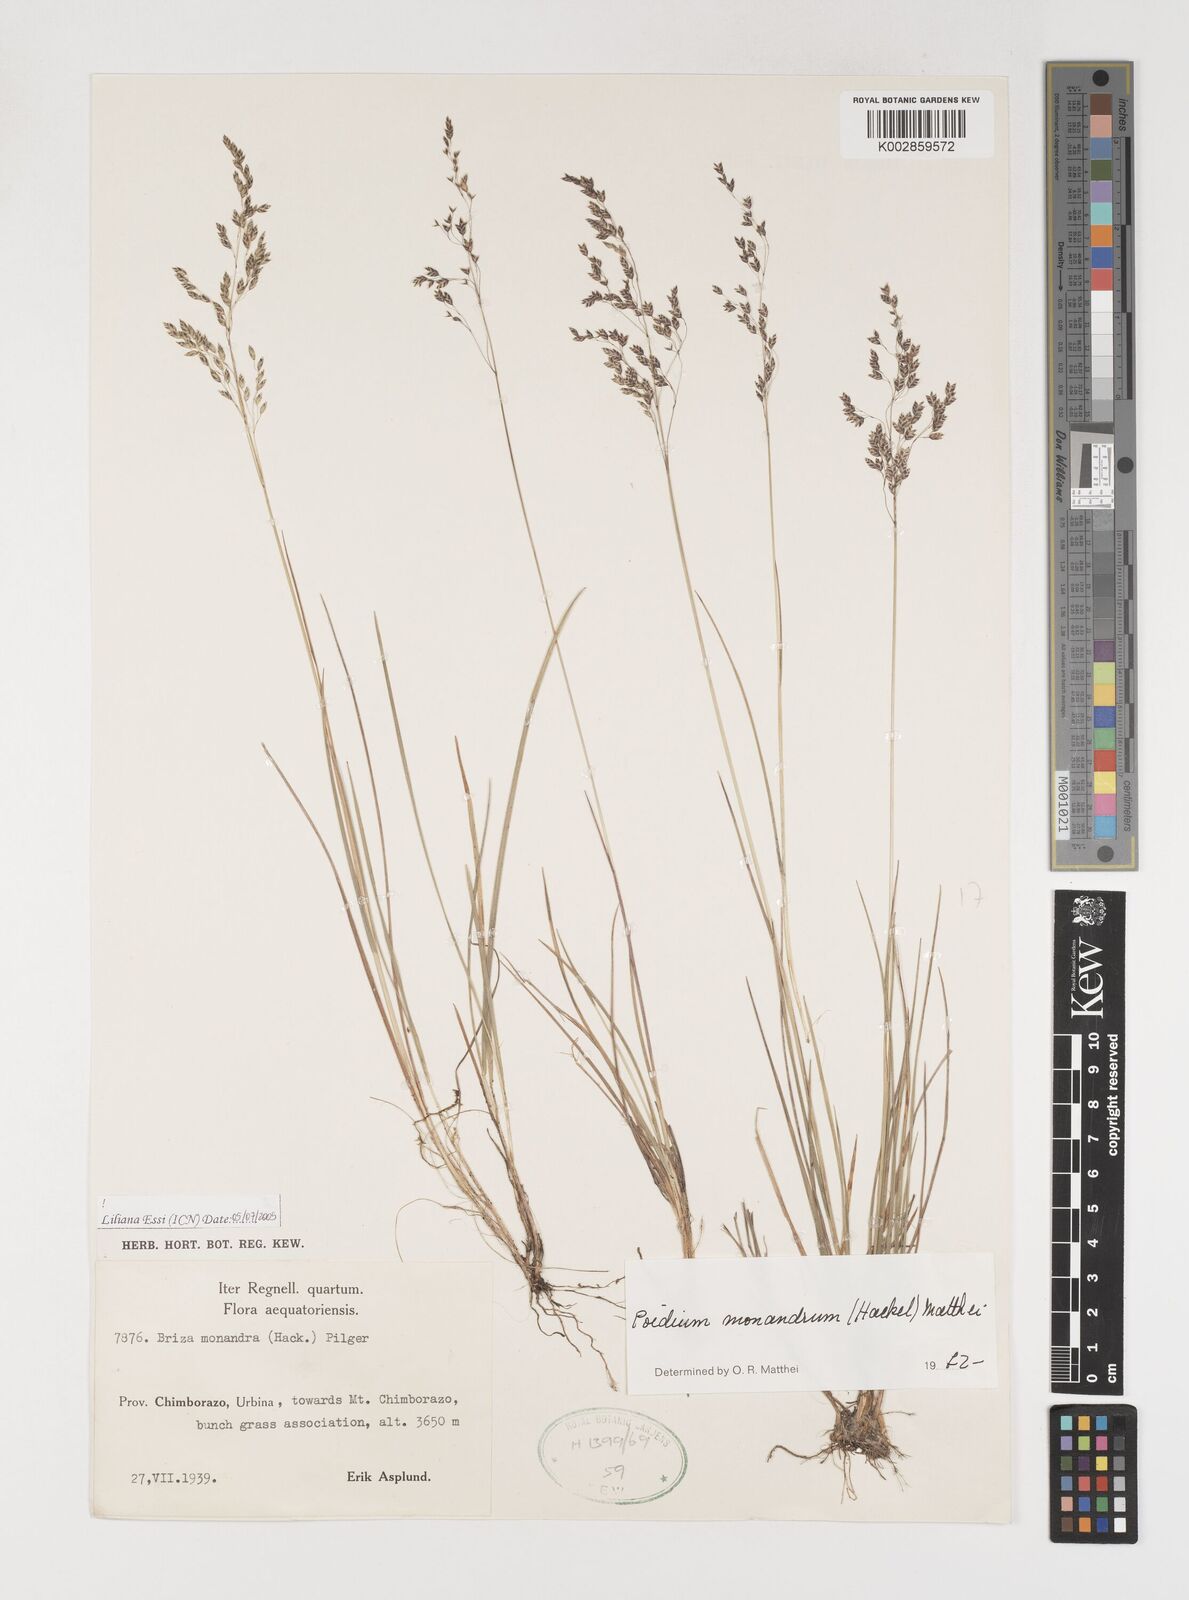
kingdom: Plantae
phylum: Tracheophyta
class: Liliopsida
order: Poales
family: Poaceae
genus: Poidium
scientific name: Poidium monandrum
